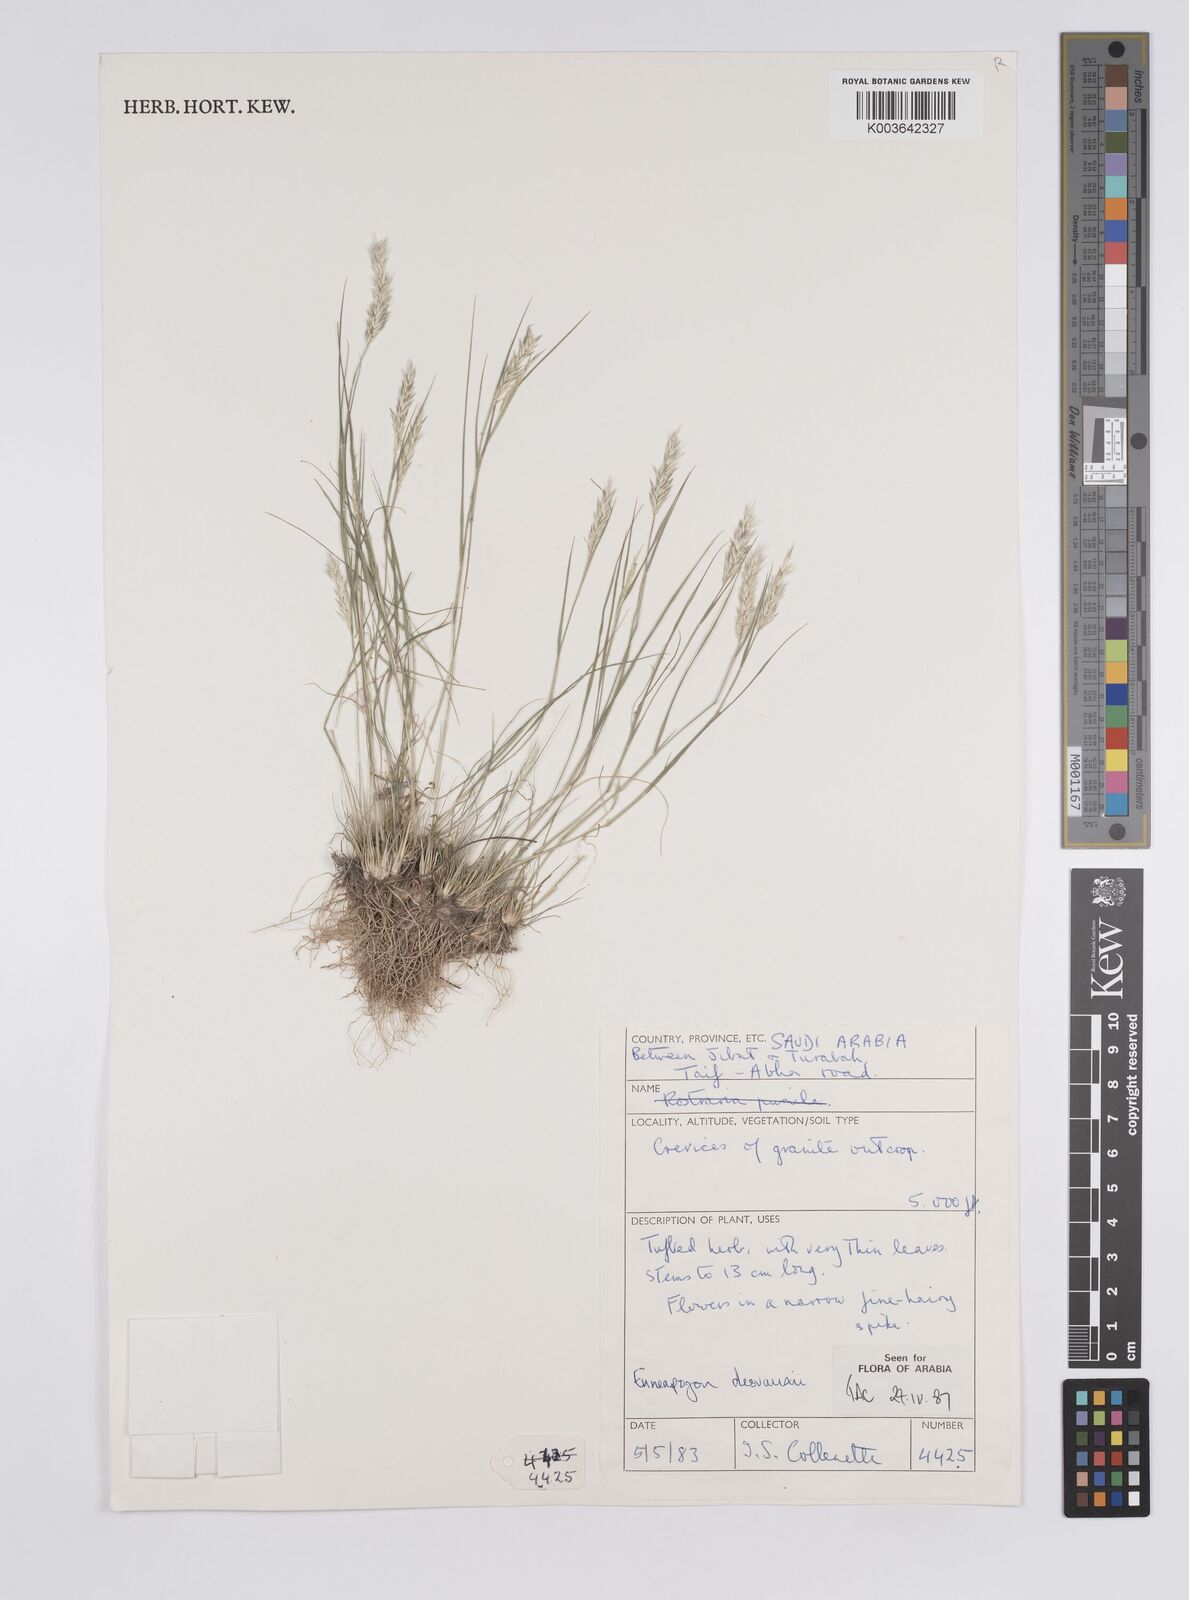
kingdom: Plantae
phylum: Tracheophyta
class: Liliopsida
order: Poales
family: Poaceae
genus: Enneapogon
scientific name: Enneapogon desvauxii
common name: Feather pappus grass
